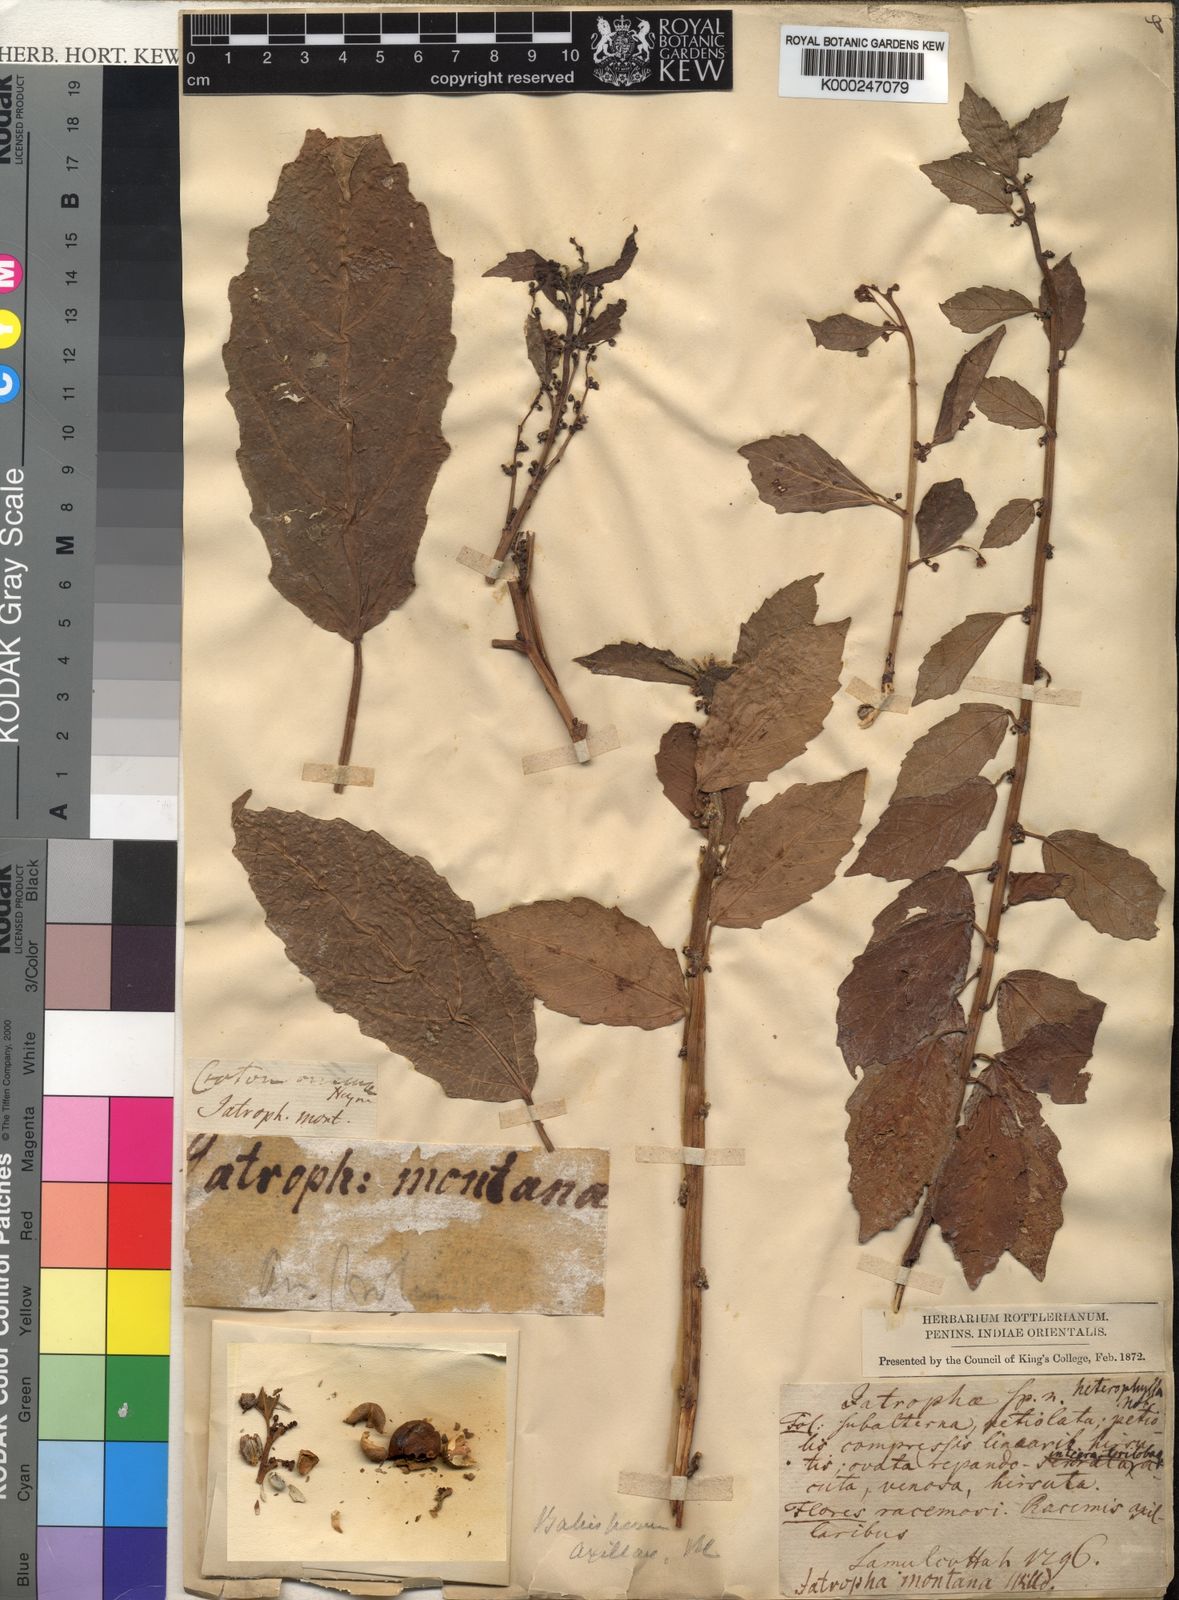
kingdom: Plantae
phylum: Tracheophyta
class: Magnoliopsida
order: Malpighiales
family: Euphorbiaceae
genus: Baliospermum
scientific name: Baliospermum
